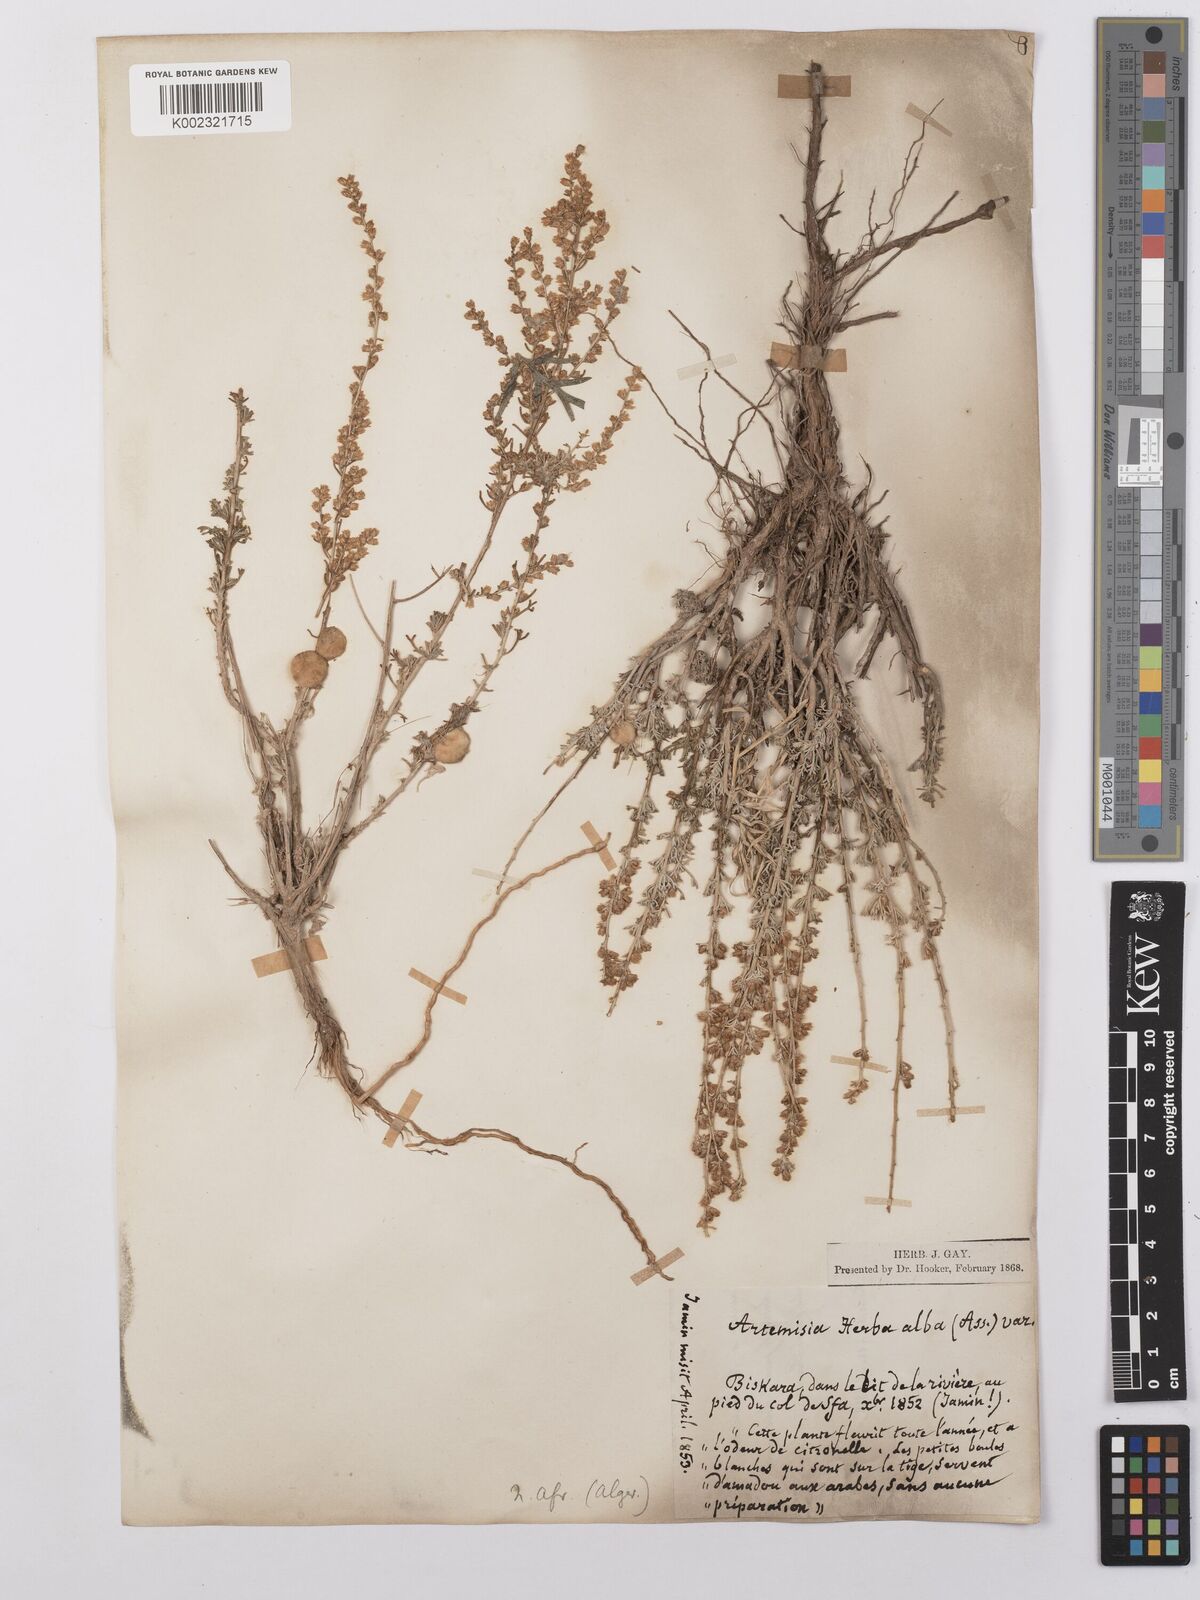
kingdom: Plantae
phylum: Tracheophyta
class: Magnoliopsida
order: Asterales
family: Asteraceae
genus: Artemisia
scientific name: Artemisia herba-alba
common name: White wormwood
